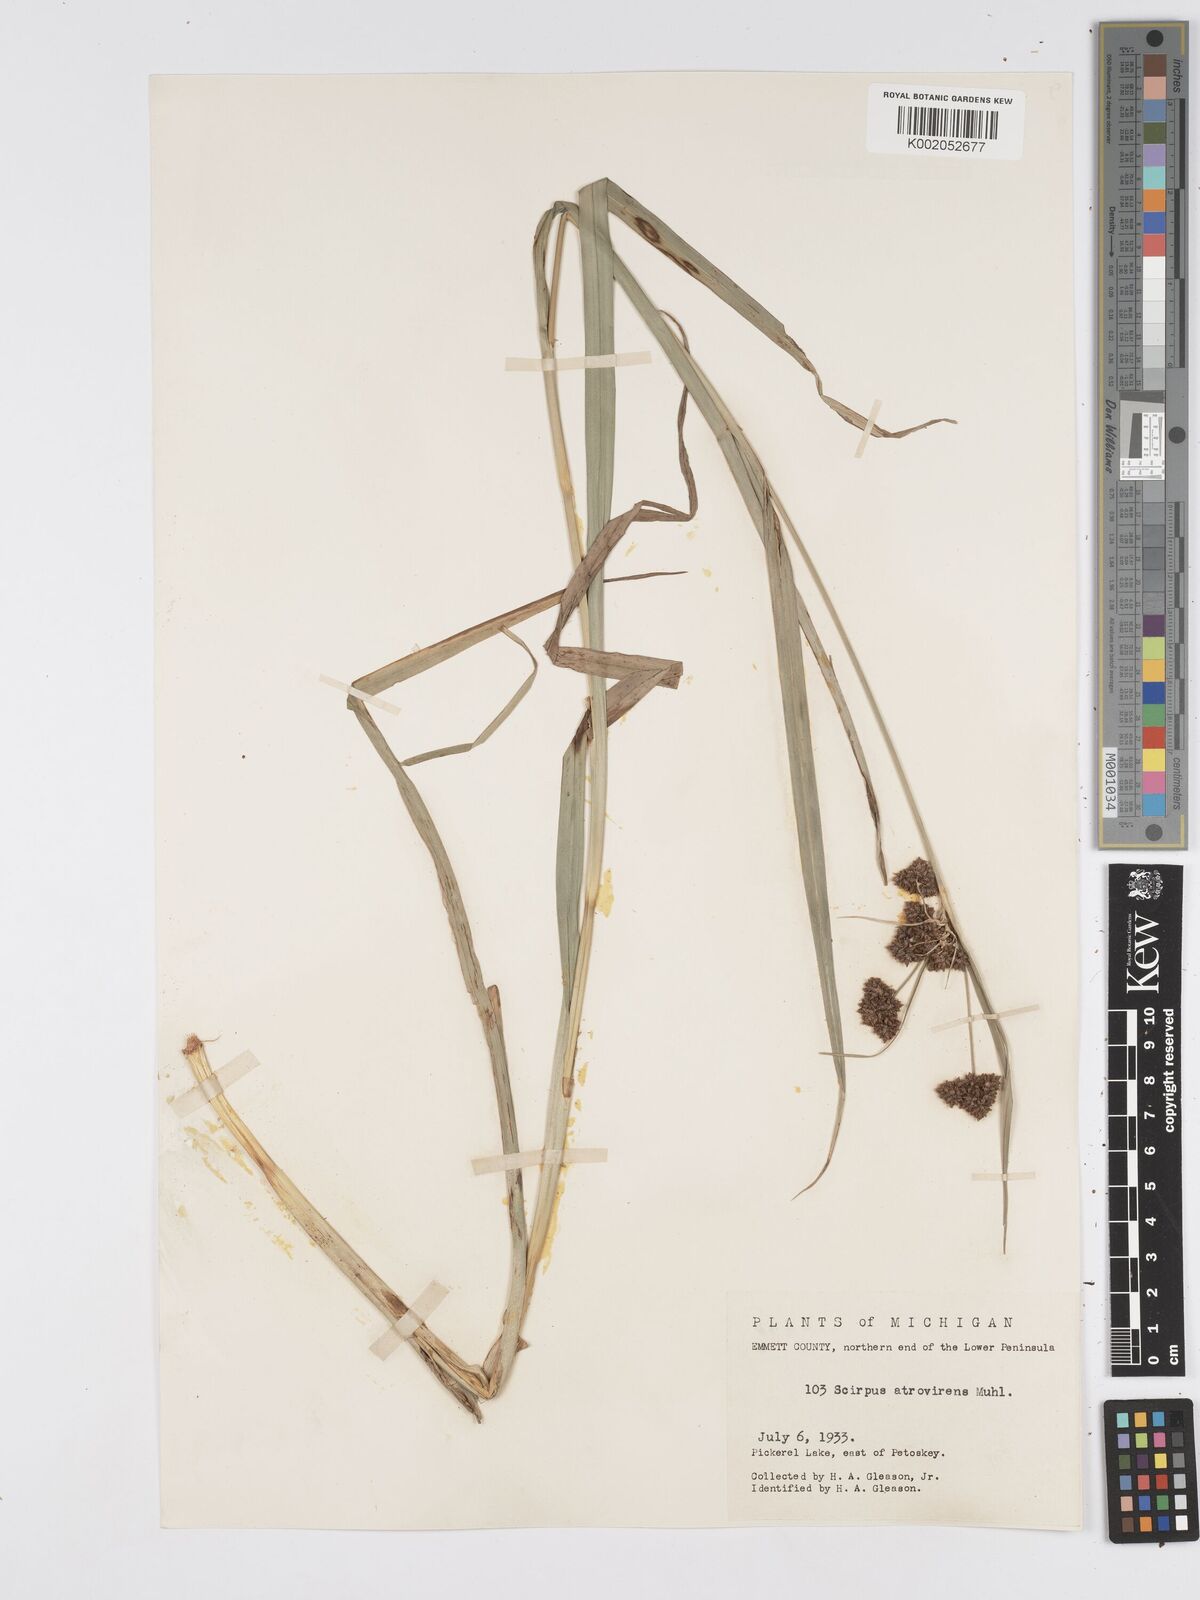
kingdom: Plantae
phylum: Tracheophyta
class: Liliopsida
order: Poales
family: Cyperaceae
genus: Scirpus
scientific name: Scirpus atrovirens
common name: Black bulrush
